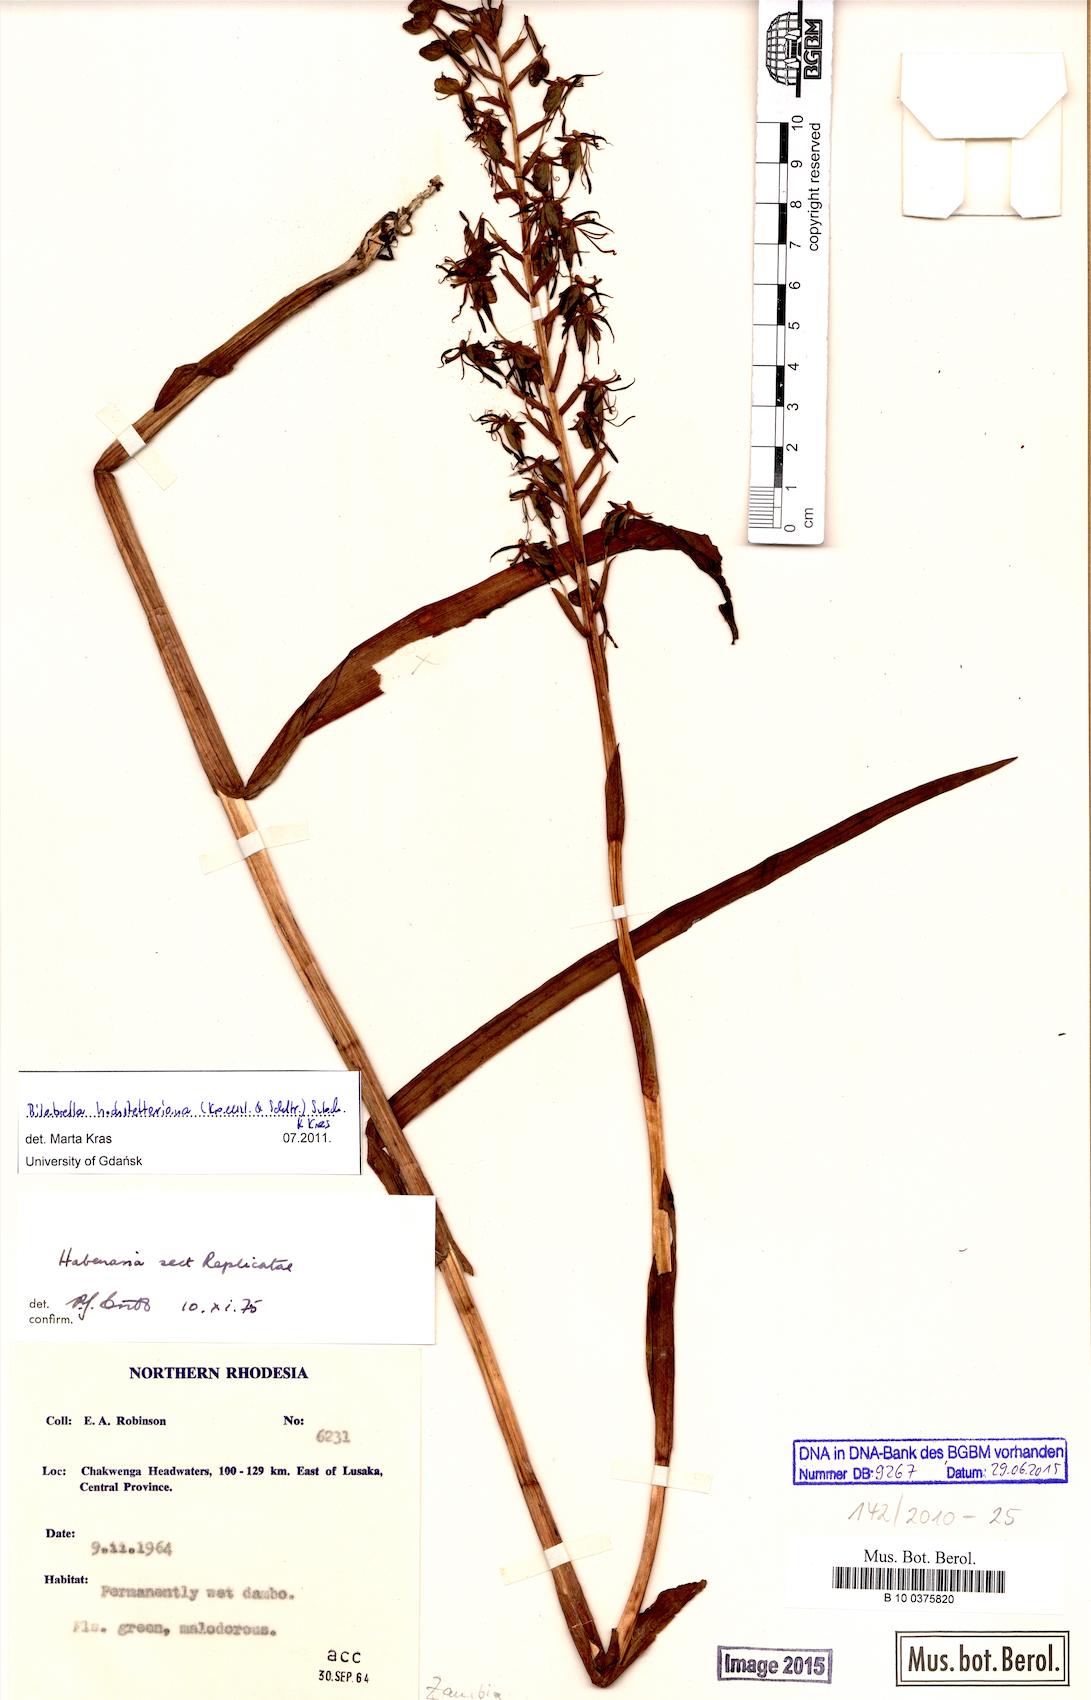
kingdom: Plantae
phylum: Tracheophyta
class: Liliopsida
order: Asparagales
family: Orchidaceae
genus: Habenaria
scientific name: Habenaria humilior
